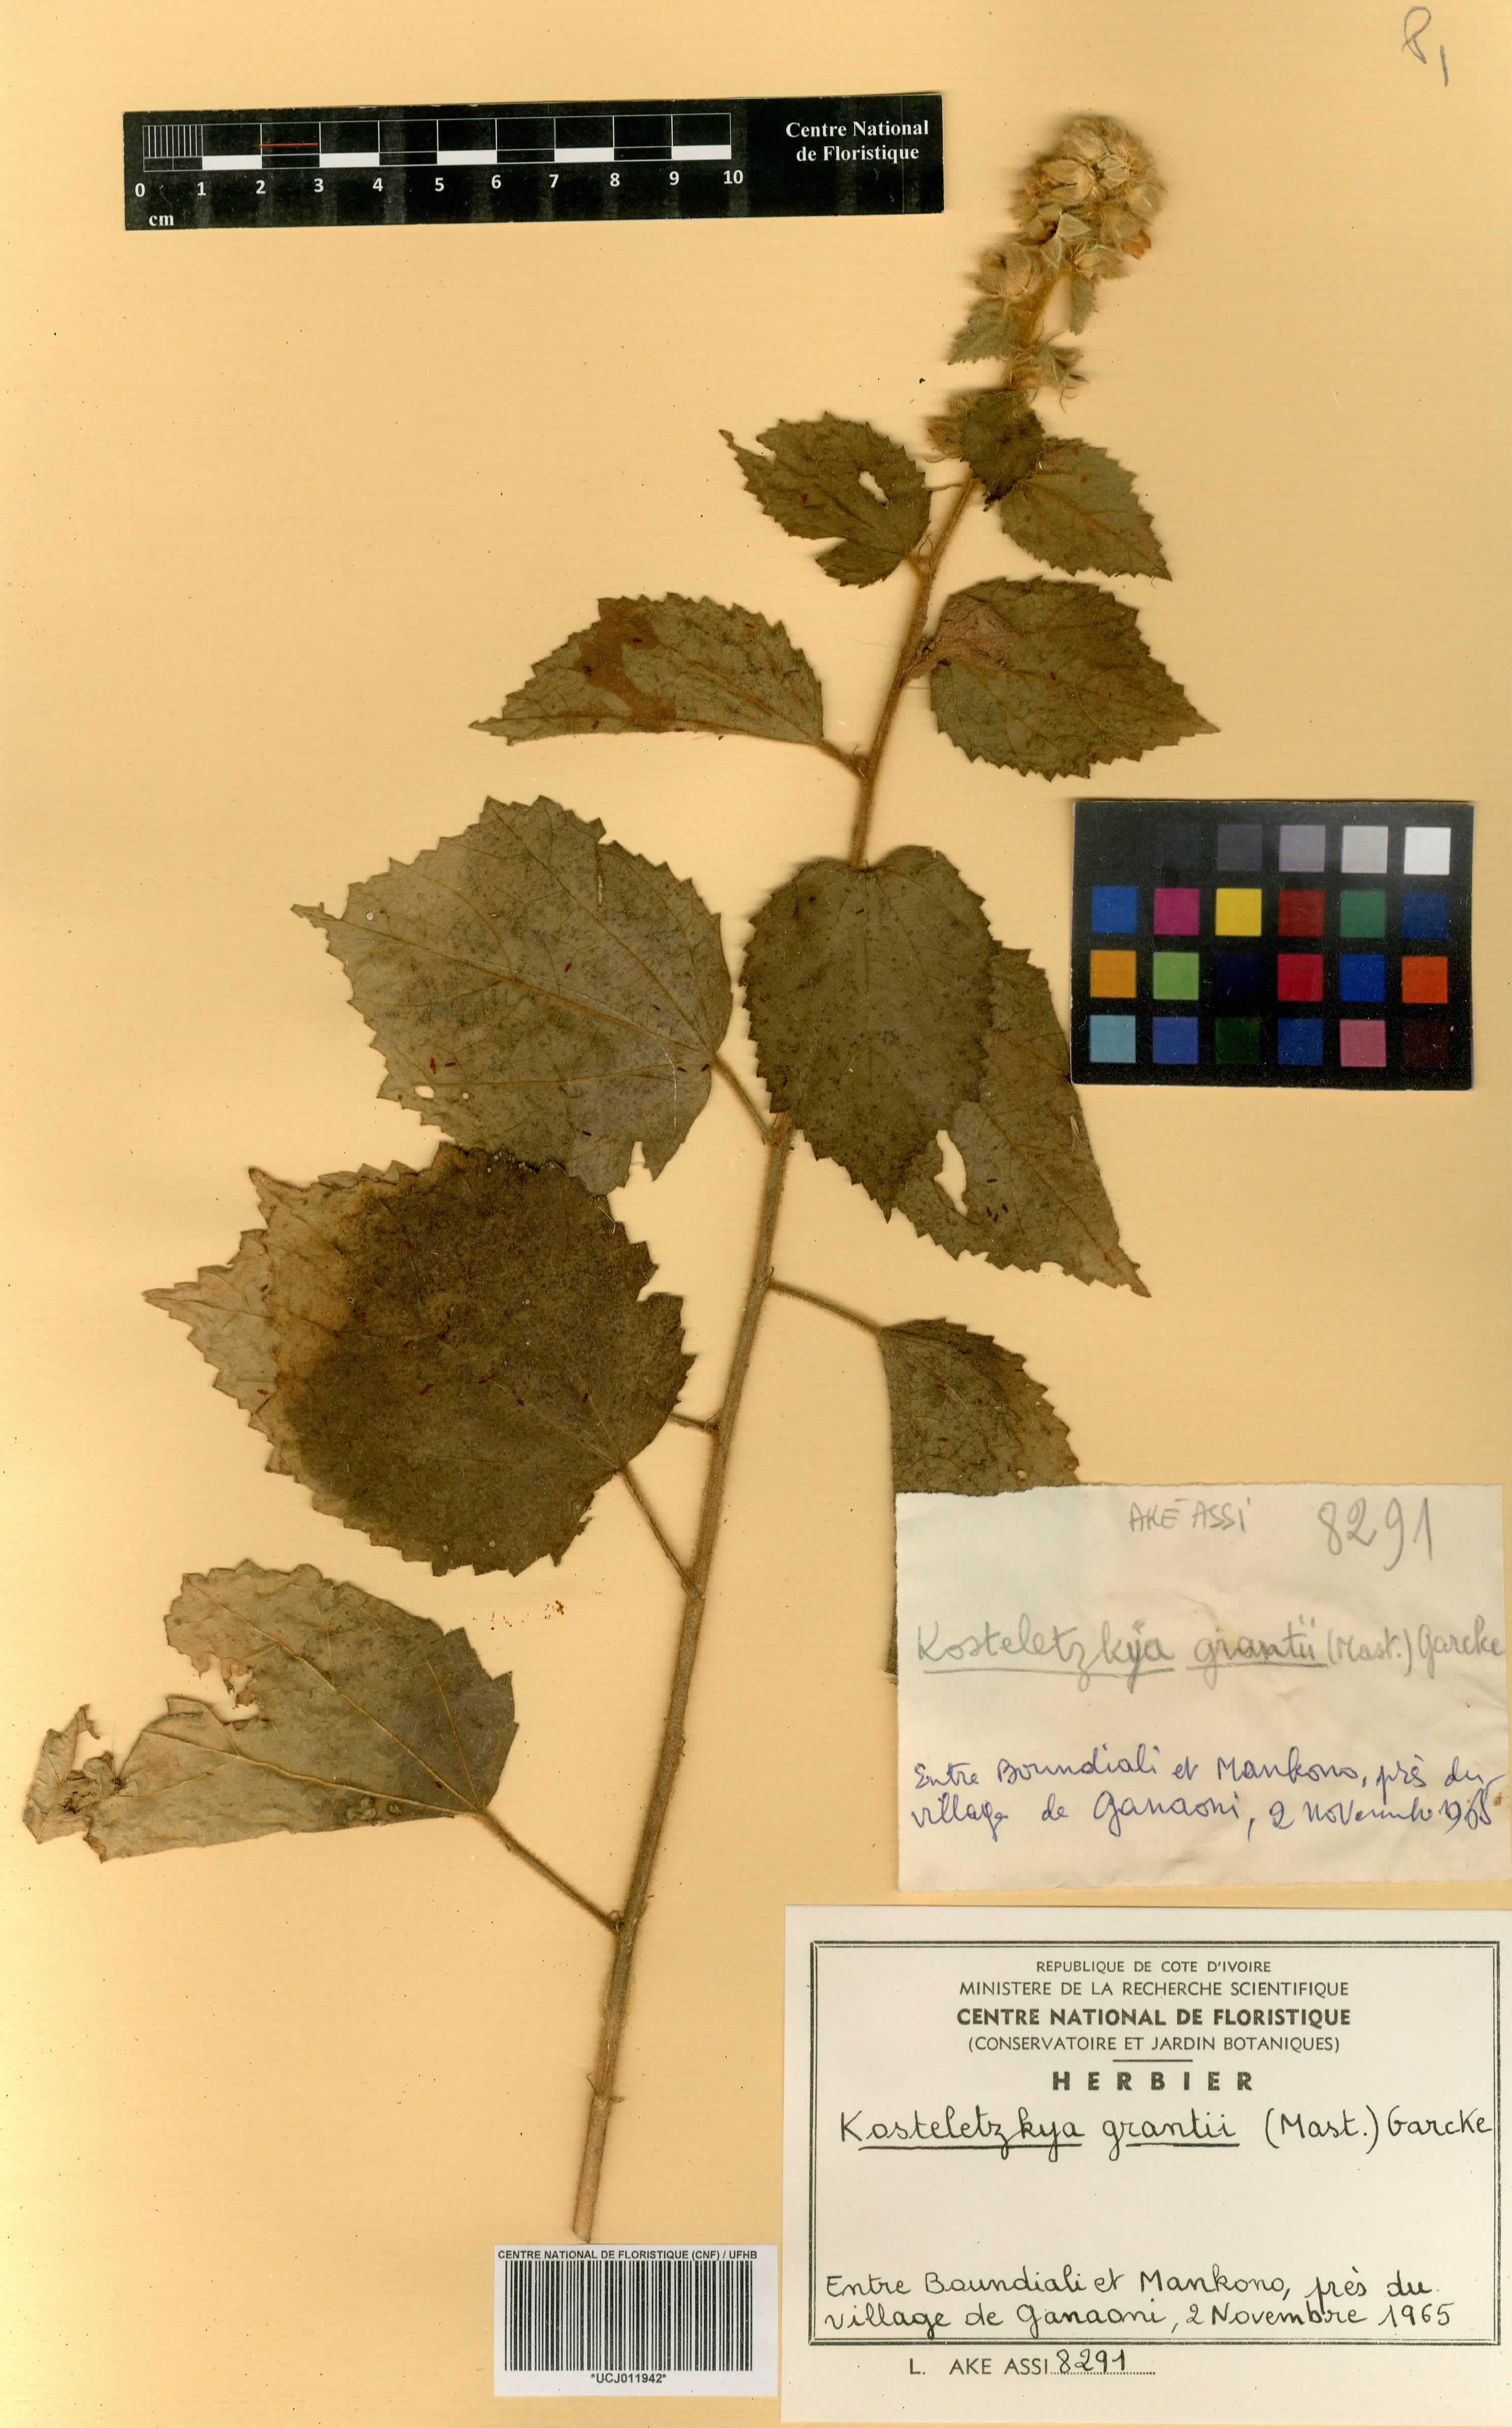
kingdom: Plantae
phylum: Tracheophyta
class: Magnoliopsida
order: Malvales
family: Malvaceae
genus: Kosteletzkya
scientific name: Kosteletzkya grantii
